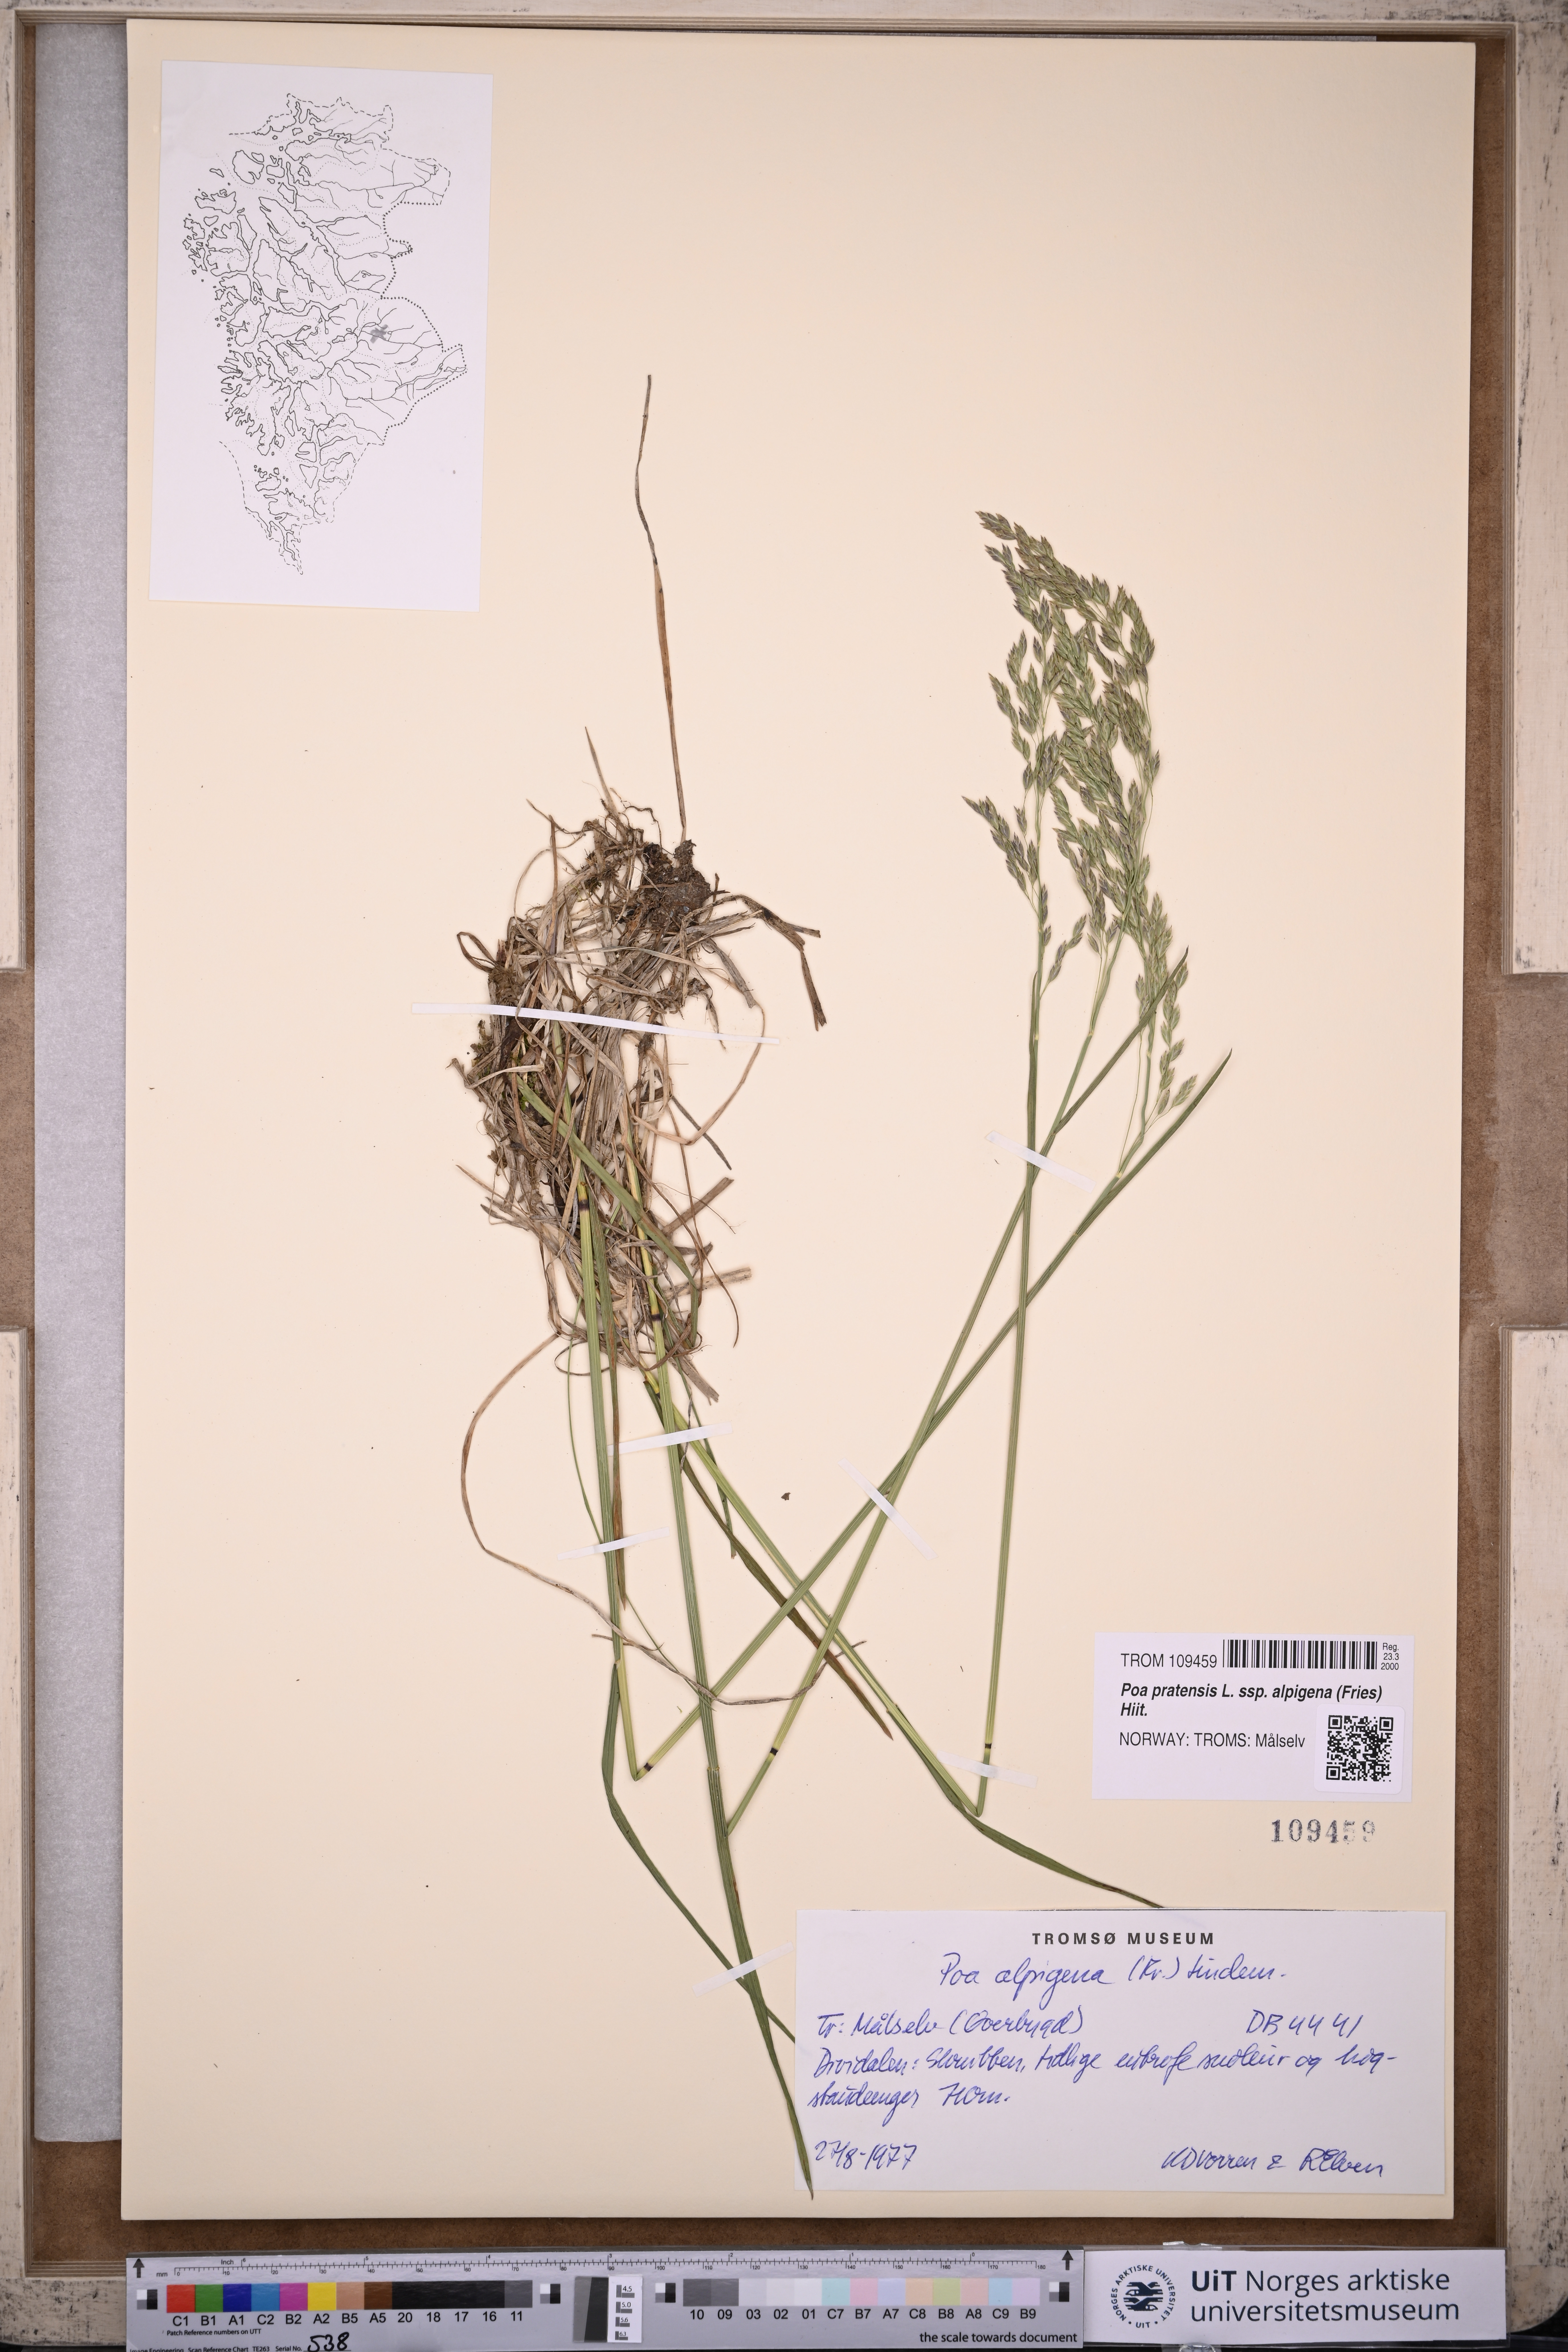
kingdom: Plantae
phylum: Tracheophyta
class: Liliopsida
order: Poales
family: Poaceae
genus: Poa
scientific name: Poa alpigena
